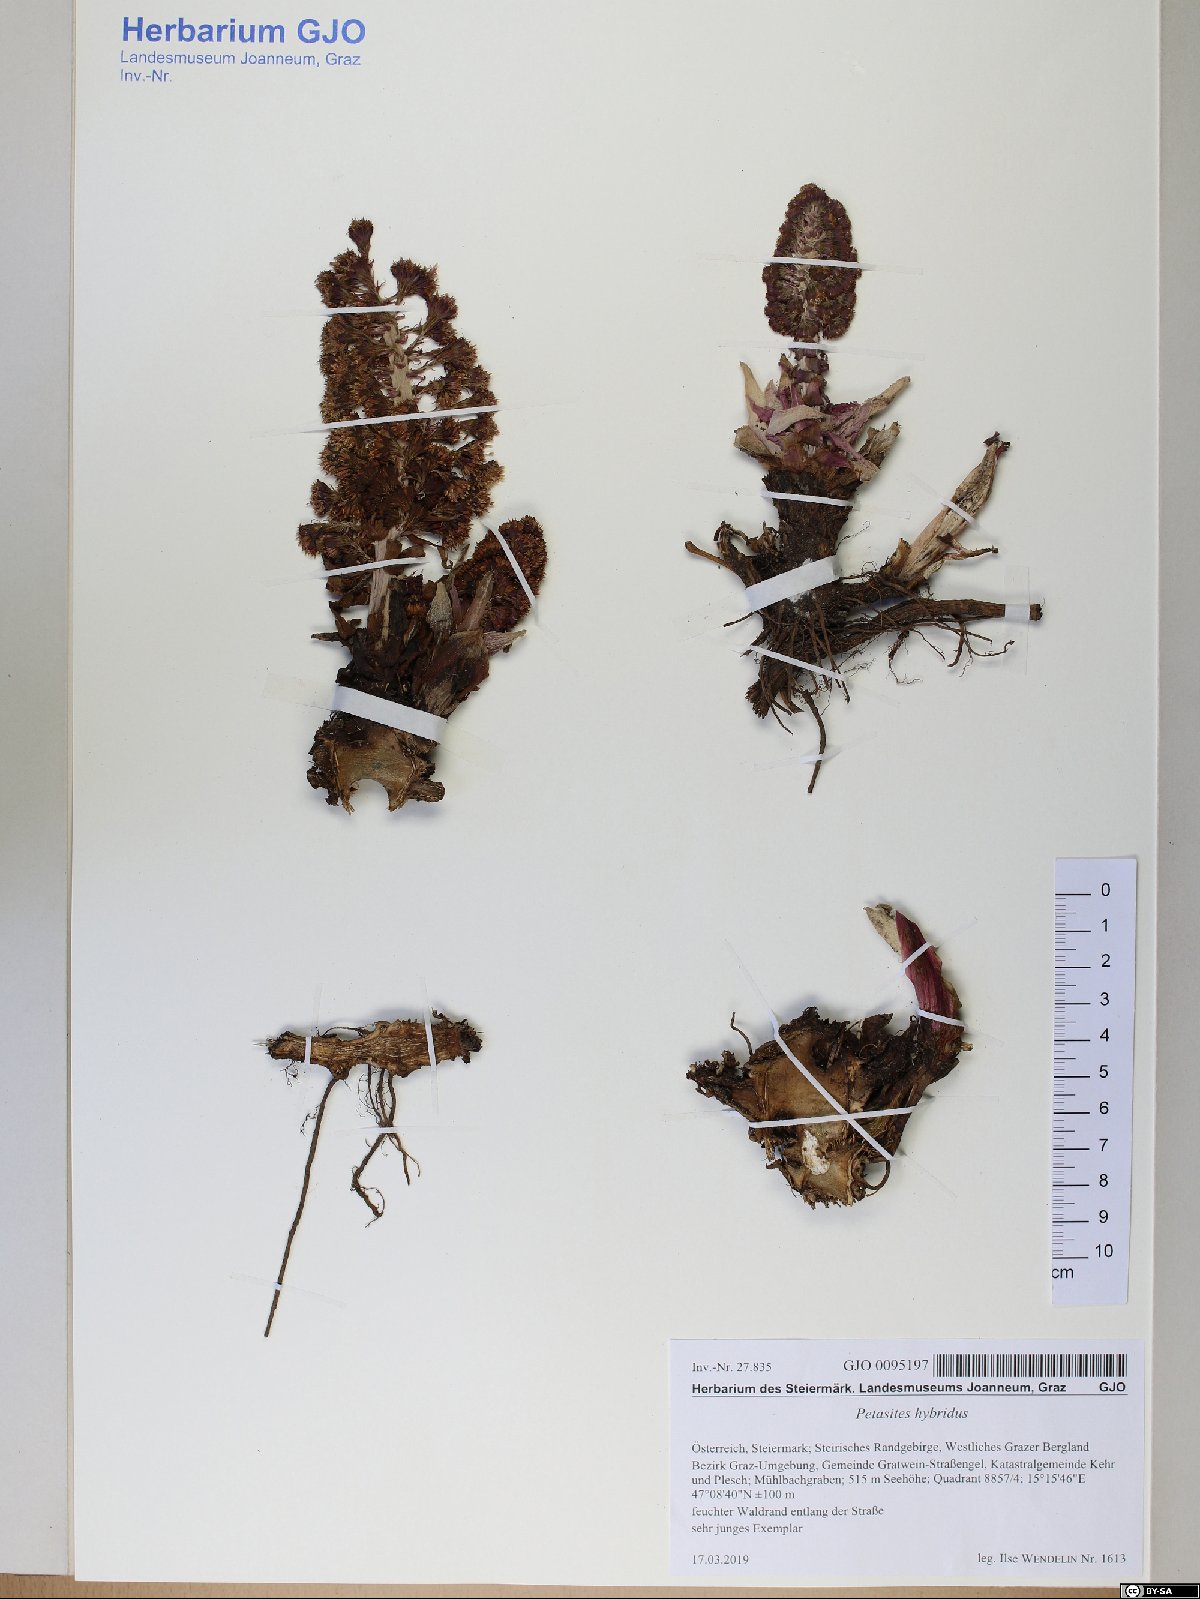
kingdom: Plantae
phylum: Tracheophyta
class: Magnoliopsida
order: Asterales
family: Asteraceae
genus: Petasites
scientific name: Petasites hybridus
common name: Butterbur
